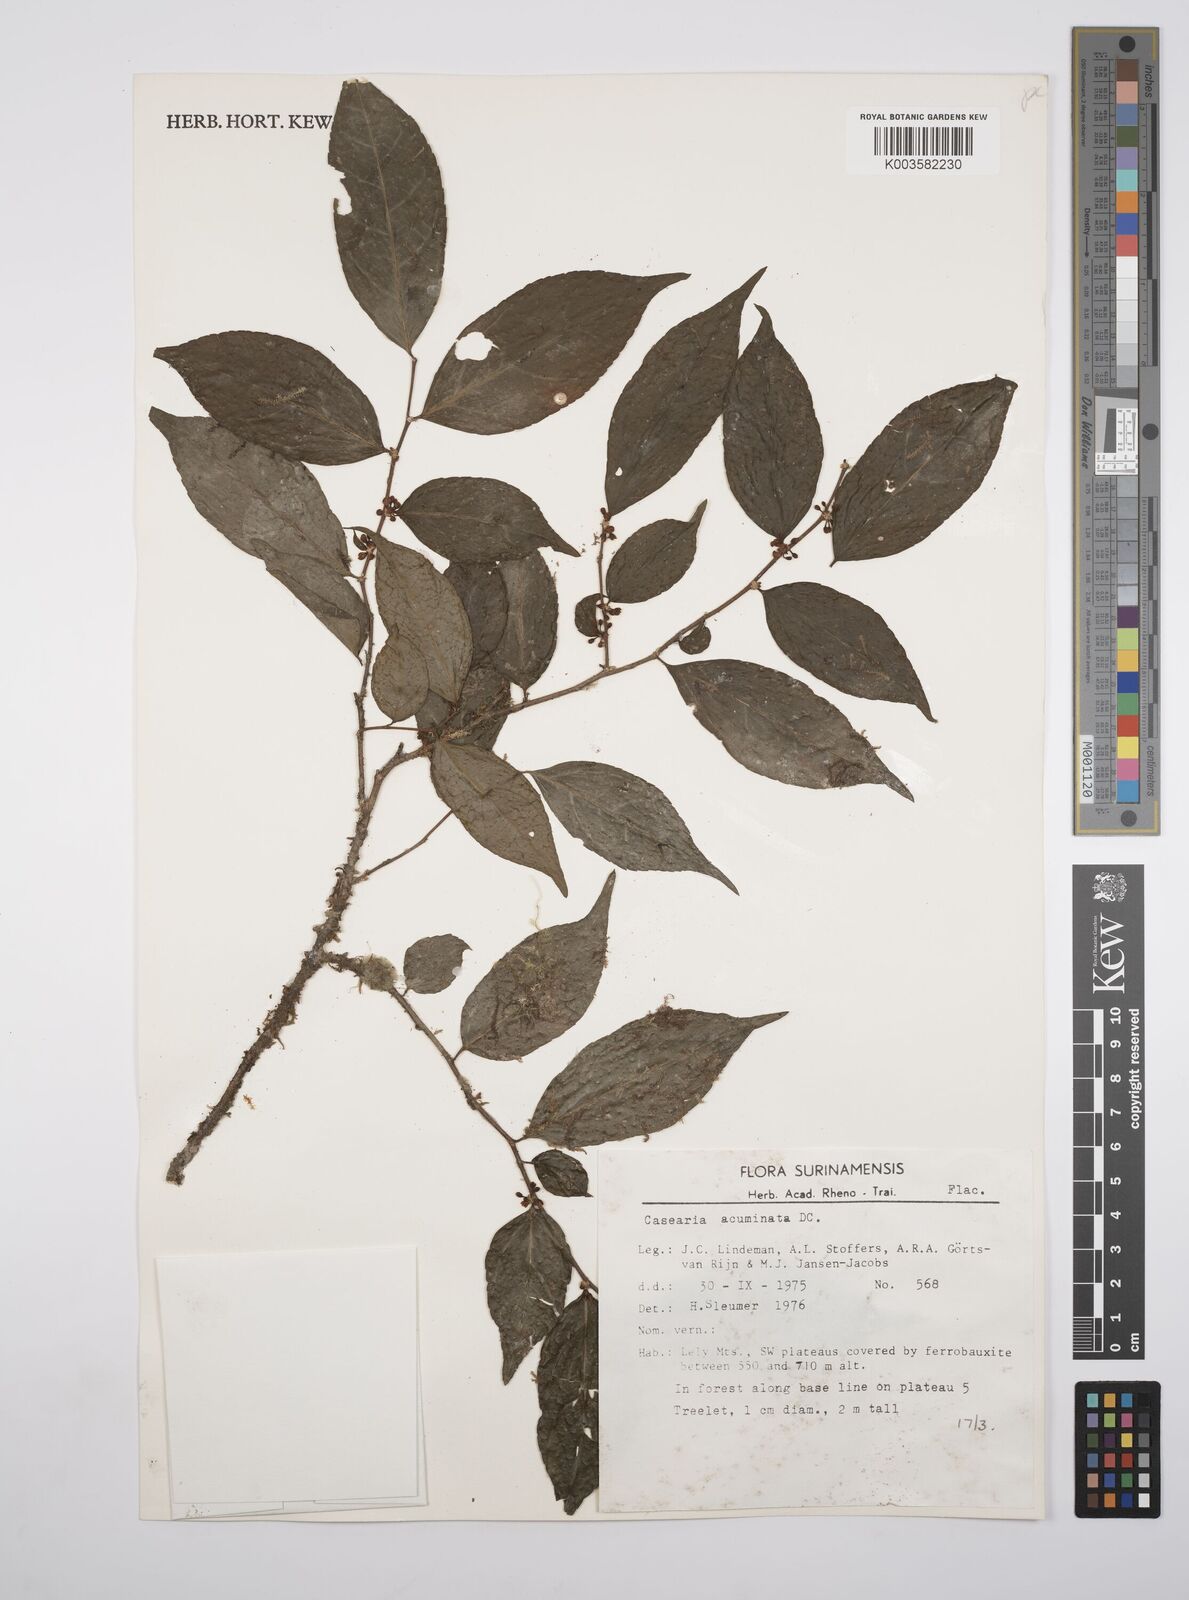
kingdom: Plantae
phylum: Tracheophyta
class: Magnoliopsida
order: Malpighiales
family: Salicaceae
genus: Casearia
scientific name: Casearia acuminata
